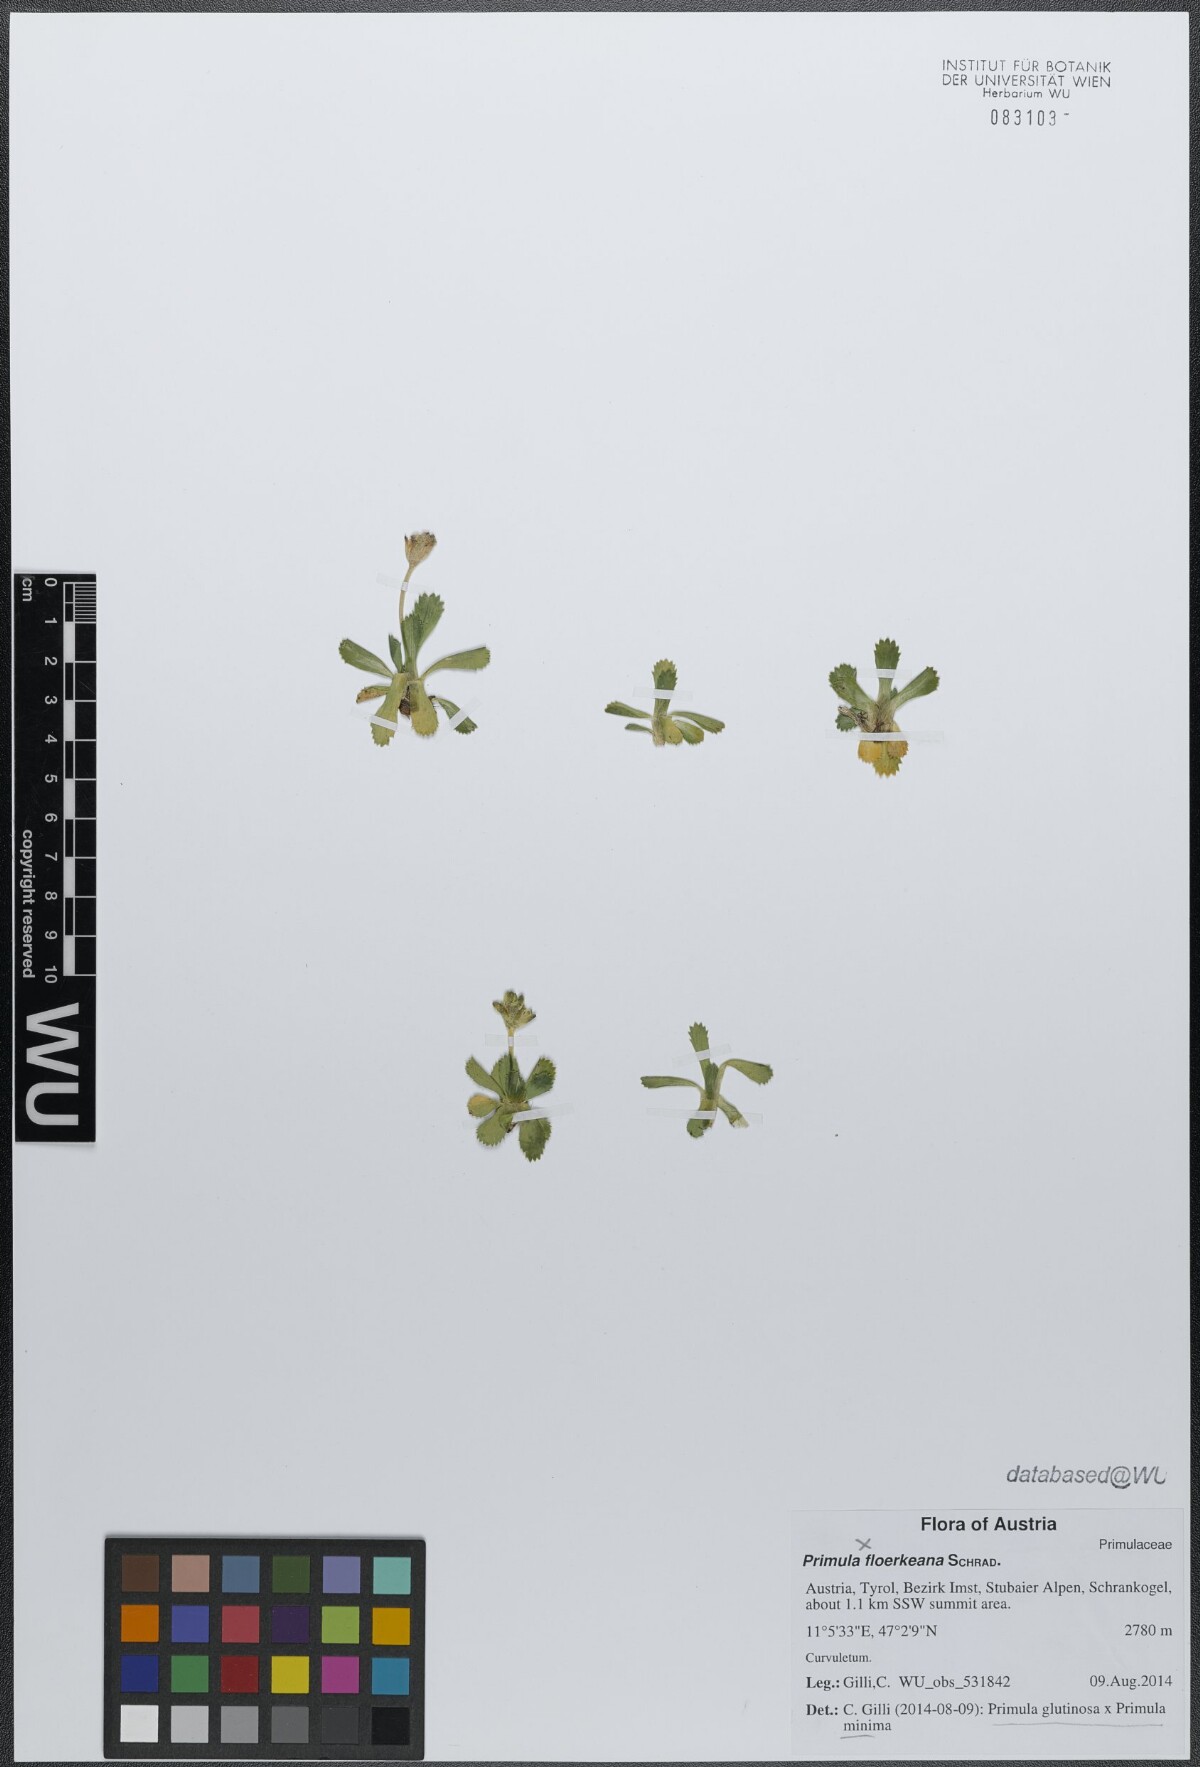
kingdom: Plantae
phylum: Tracheophyta
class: Magnoliopsida
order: Ericales
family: Primulaceae
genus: Primula
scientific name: Primula floerkeana
